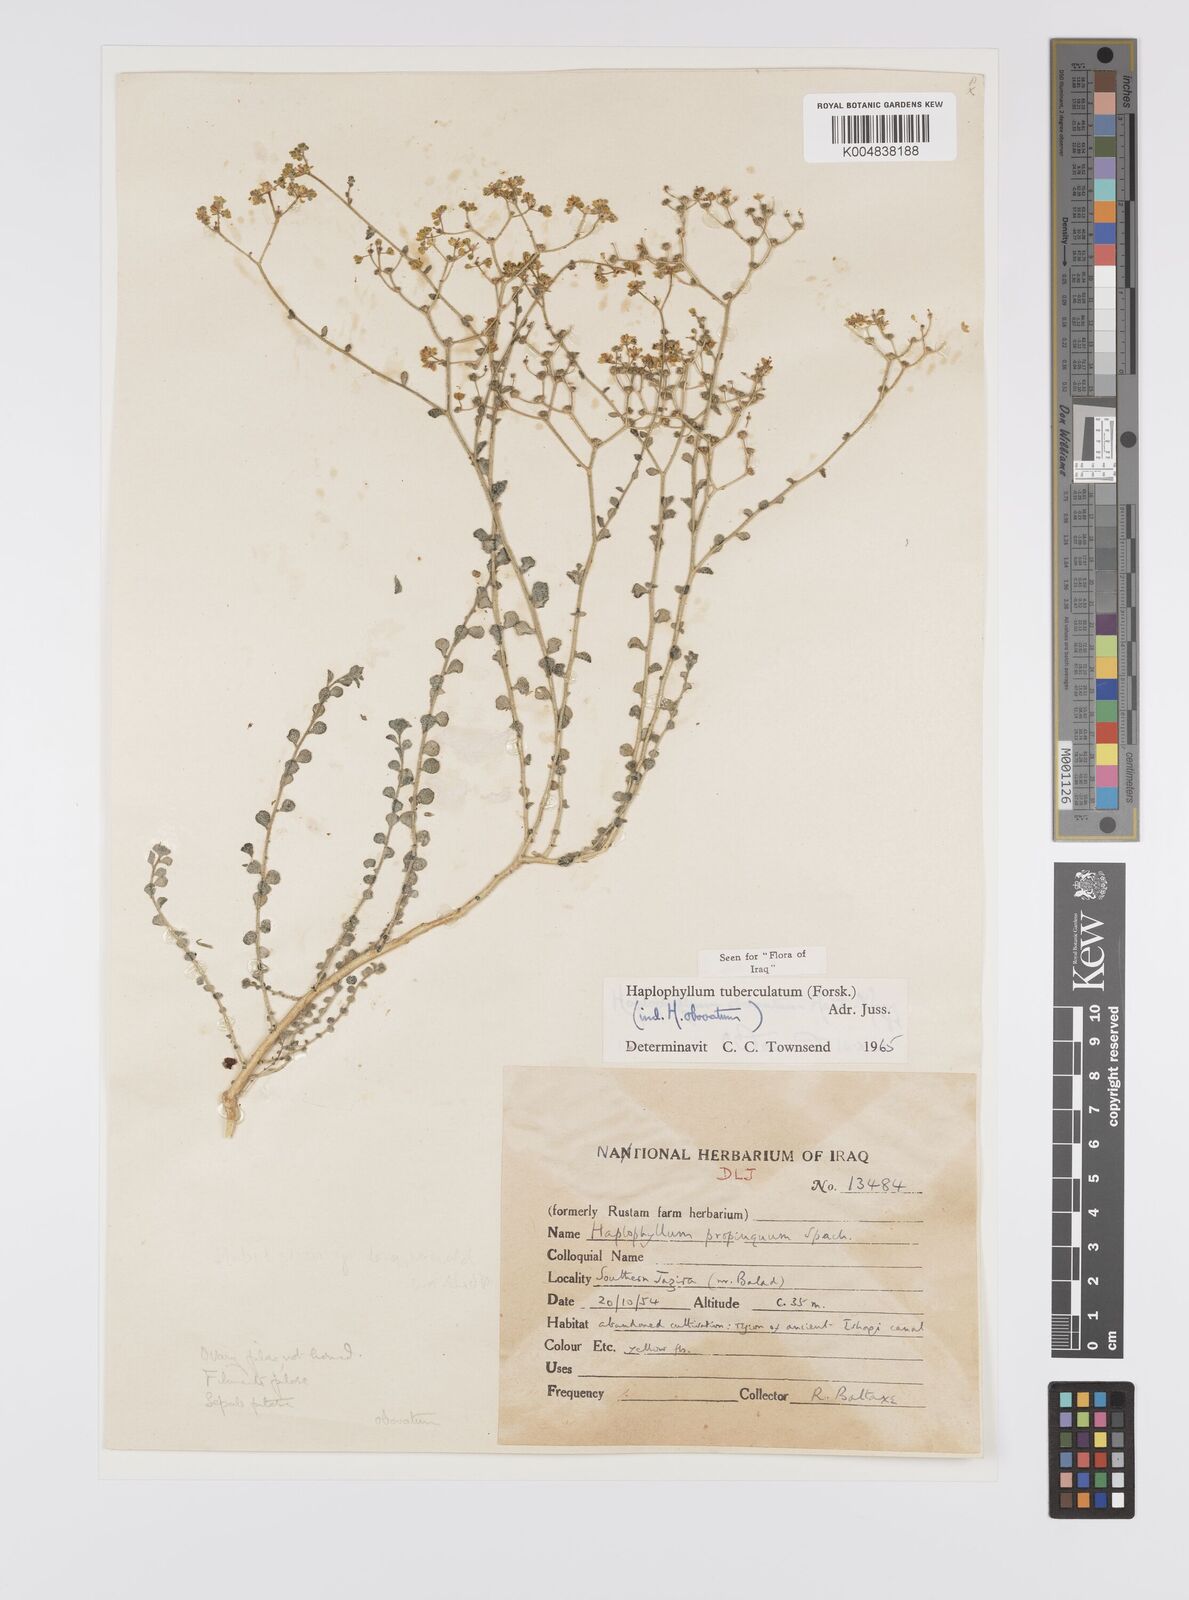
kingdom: Plantae
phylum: Tracheophyta
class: Magnoliopsida
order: Sapindales
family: Rutaceae
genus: Haplophyllum
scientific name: Haplophyllum tuberculatum
